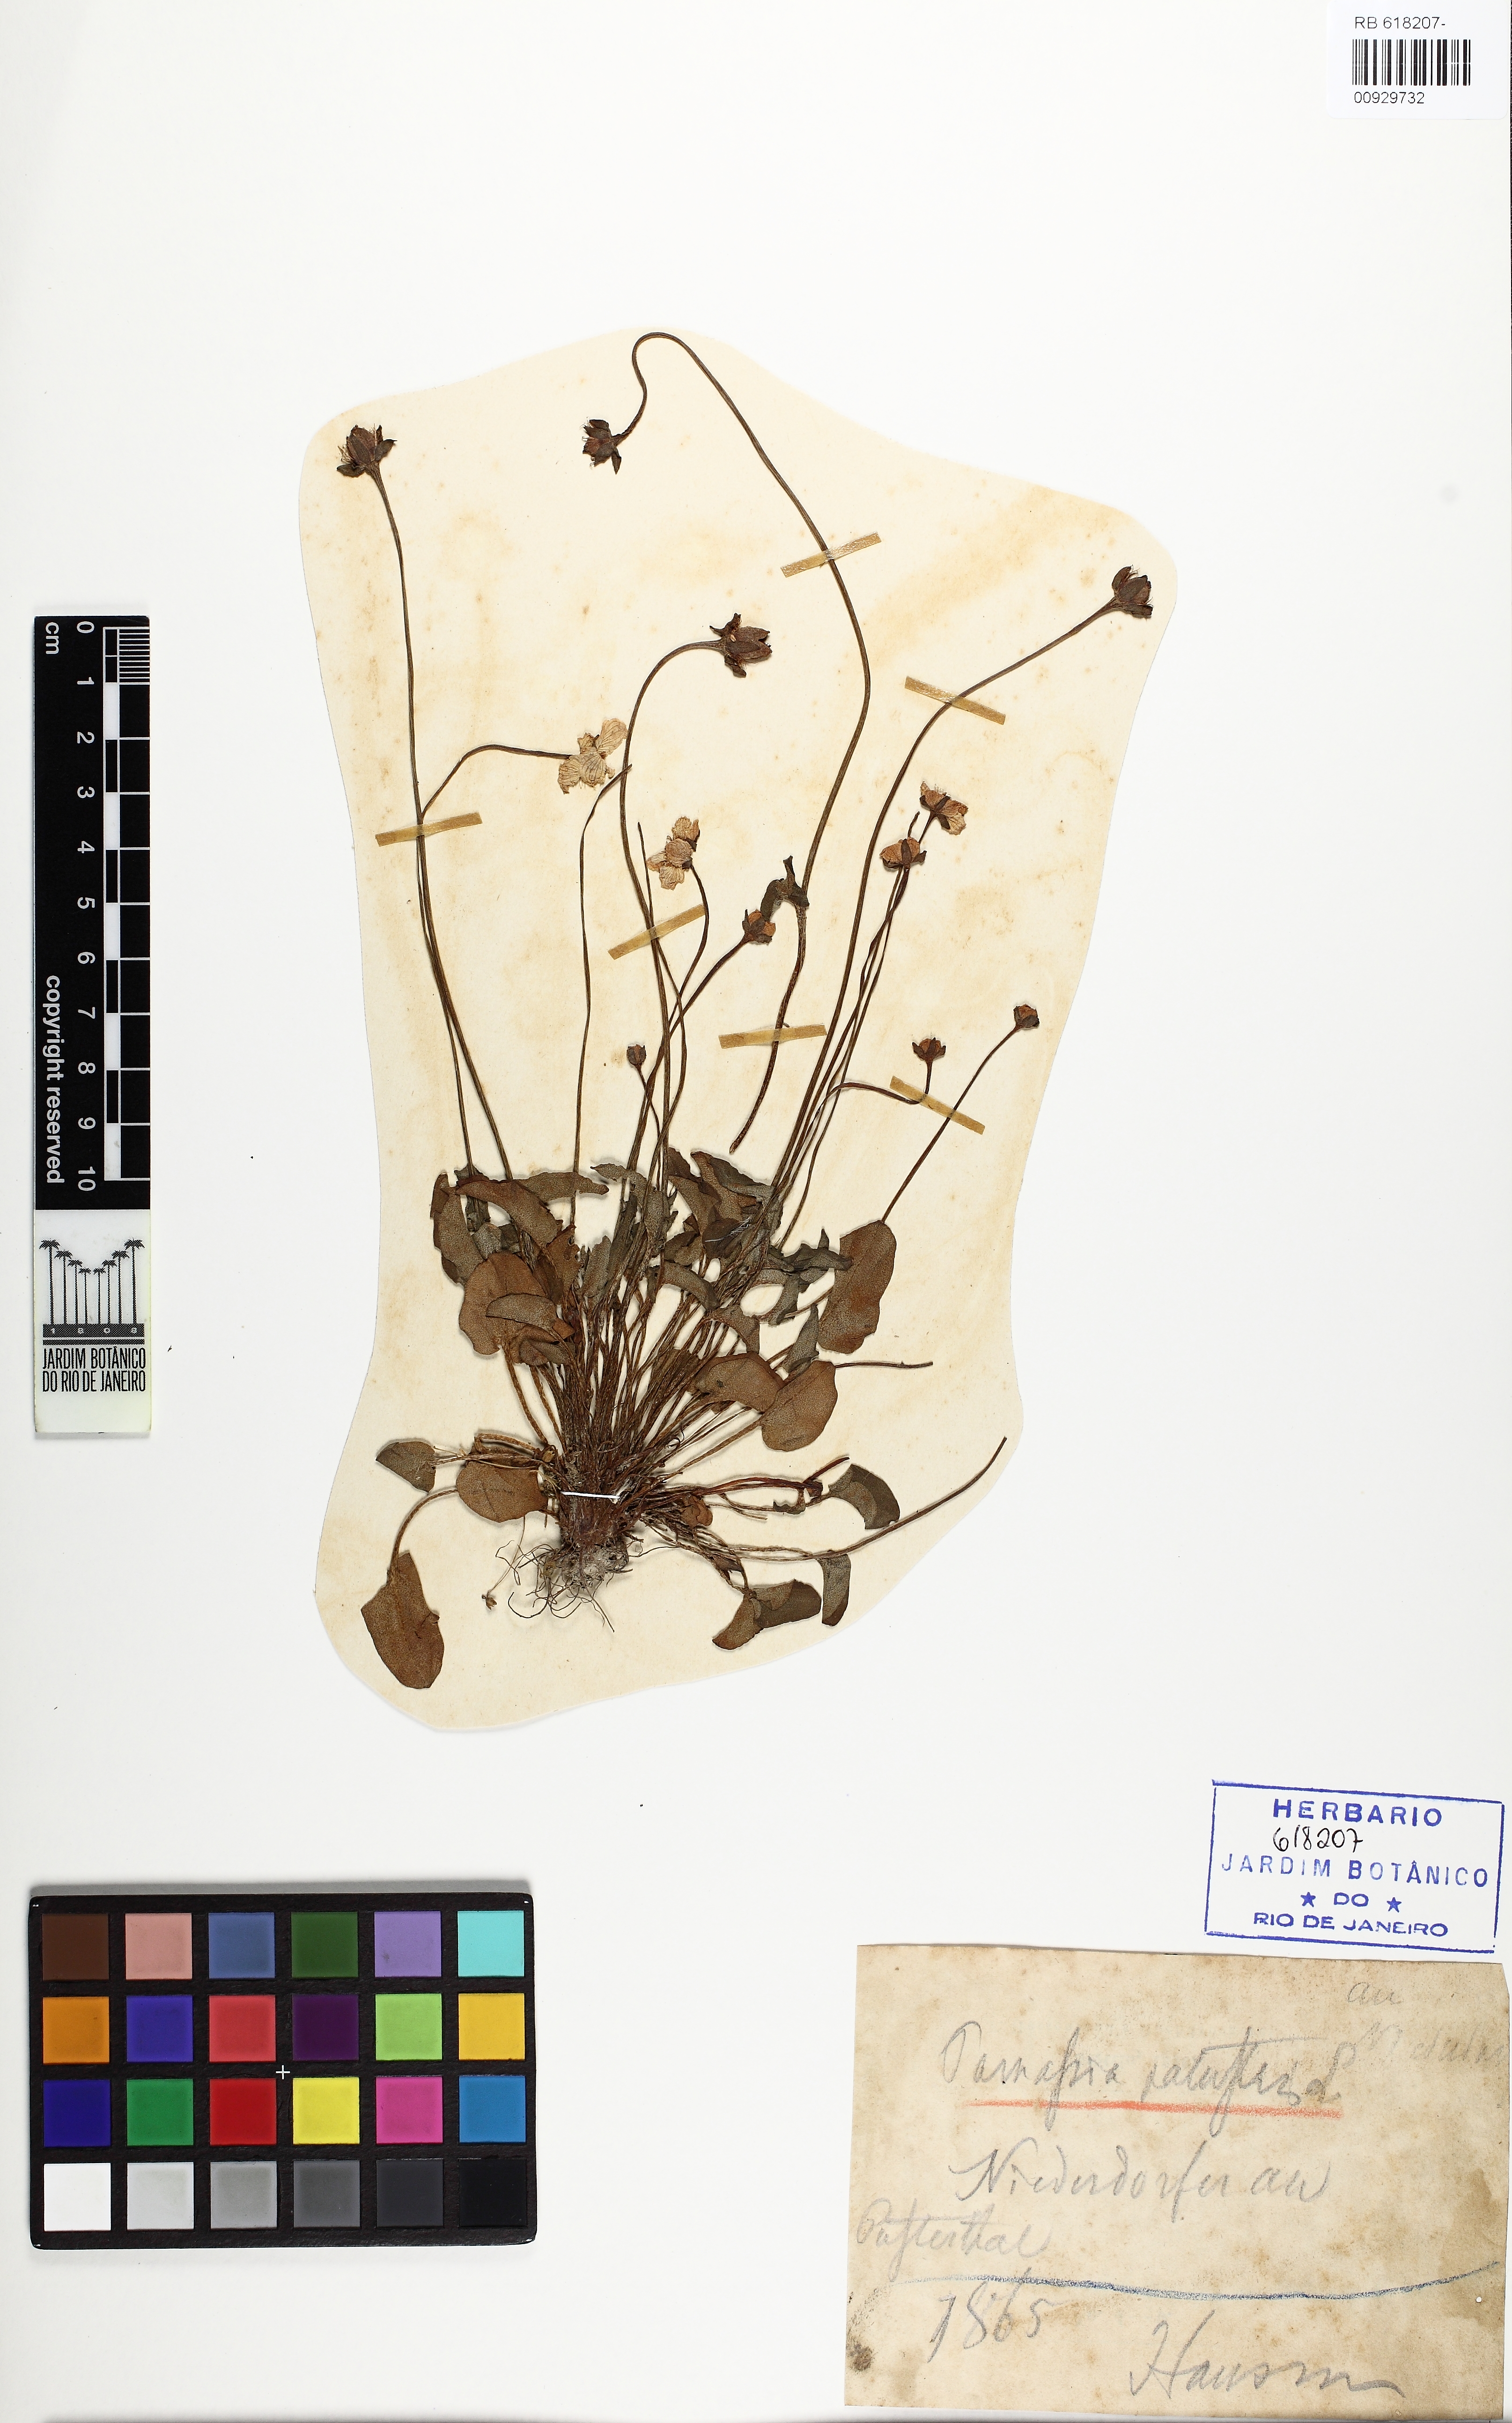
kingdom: Plantae
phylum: Tracheophyta
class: Magnoliopsida
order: Celastrales
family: Parnassiaceae
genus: Parnassia
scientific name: Parnassia palustris
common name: Grass-of-parnassus
